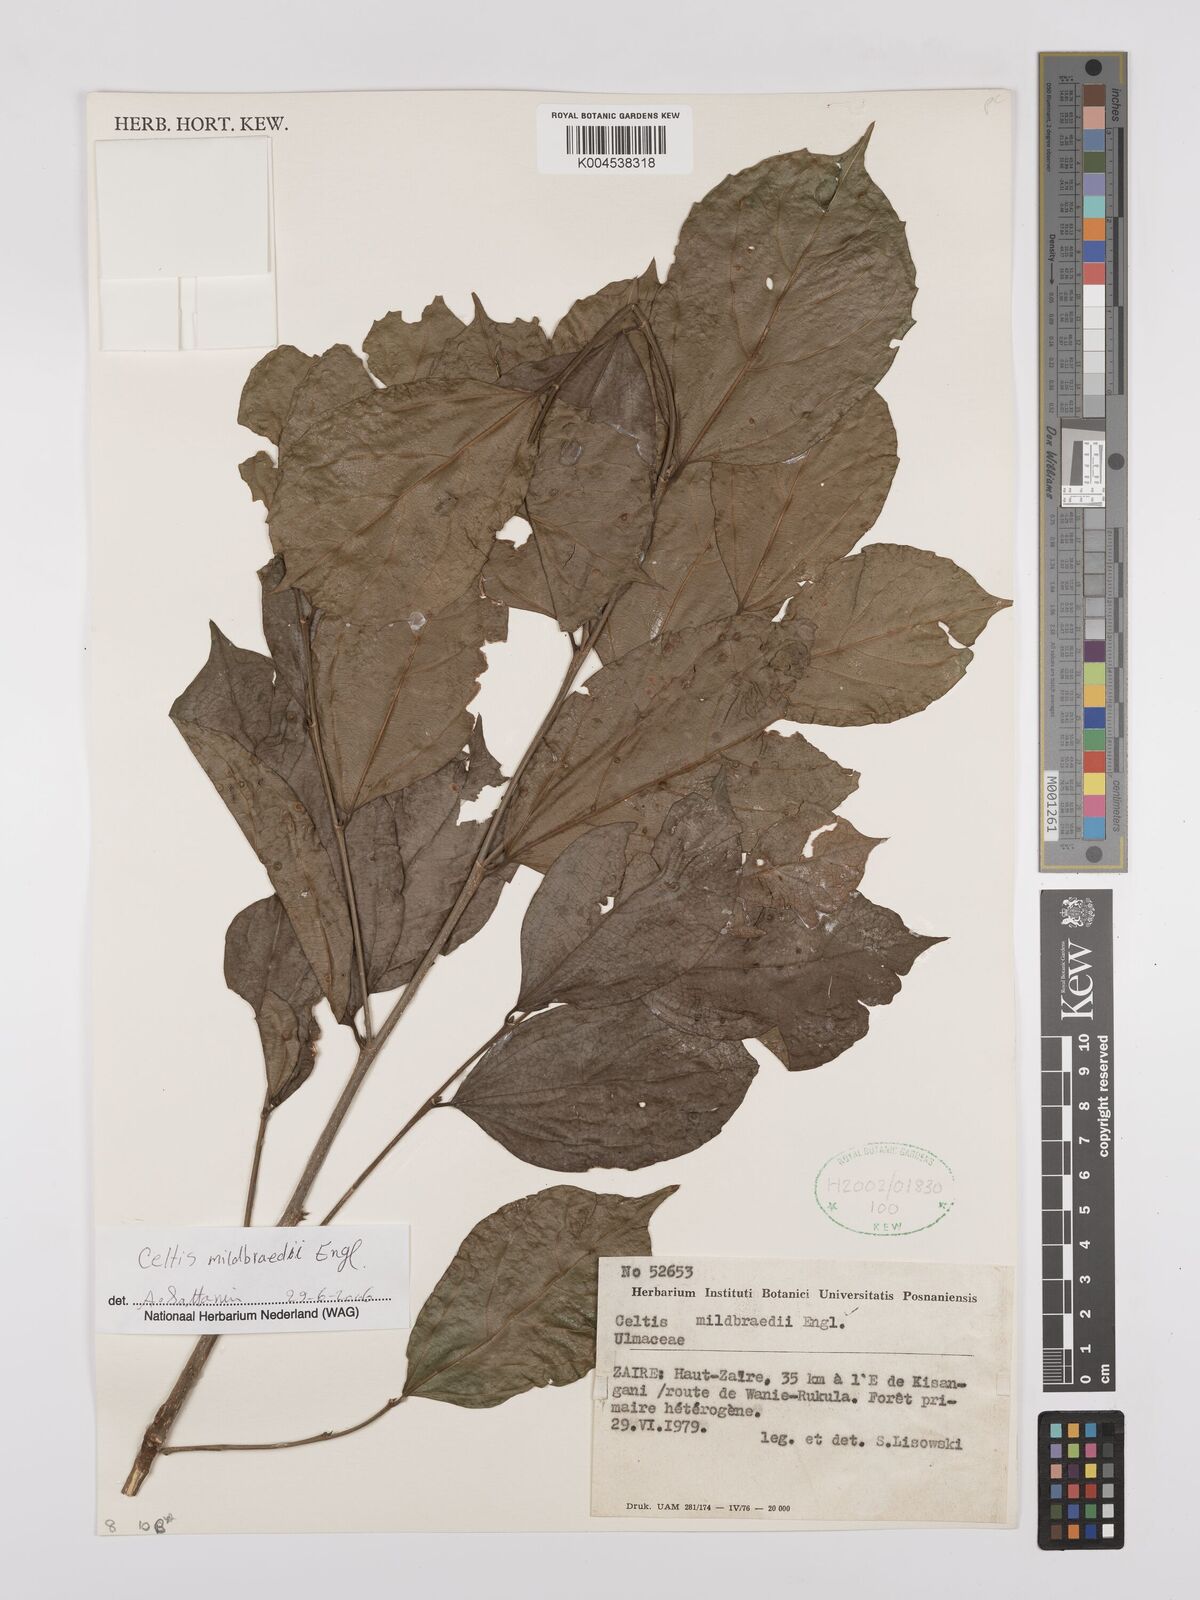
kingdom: Plantae
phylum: Tracheophyta
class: Magnoliopsida
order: Rosales
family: Cannabaceae
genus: Celtis
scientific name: Celtis mildbraedii
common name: Red-fruited stinkwood
